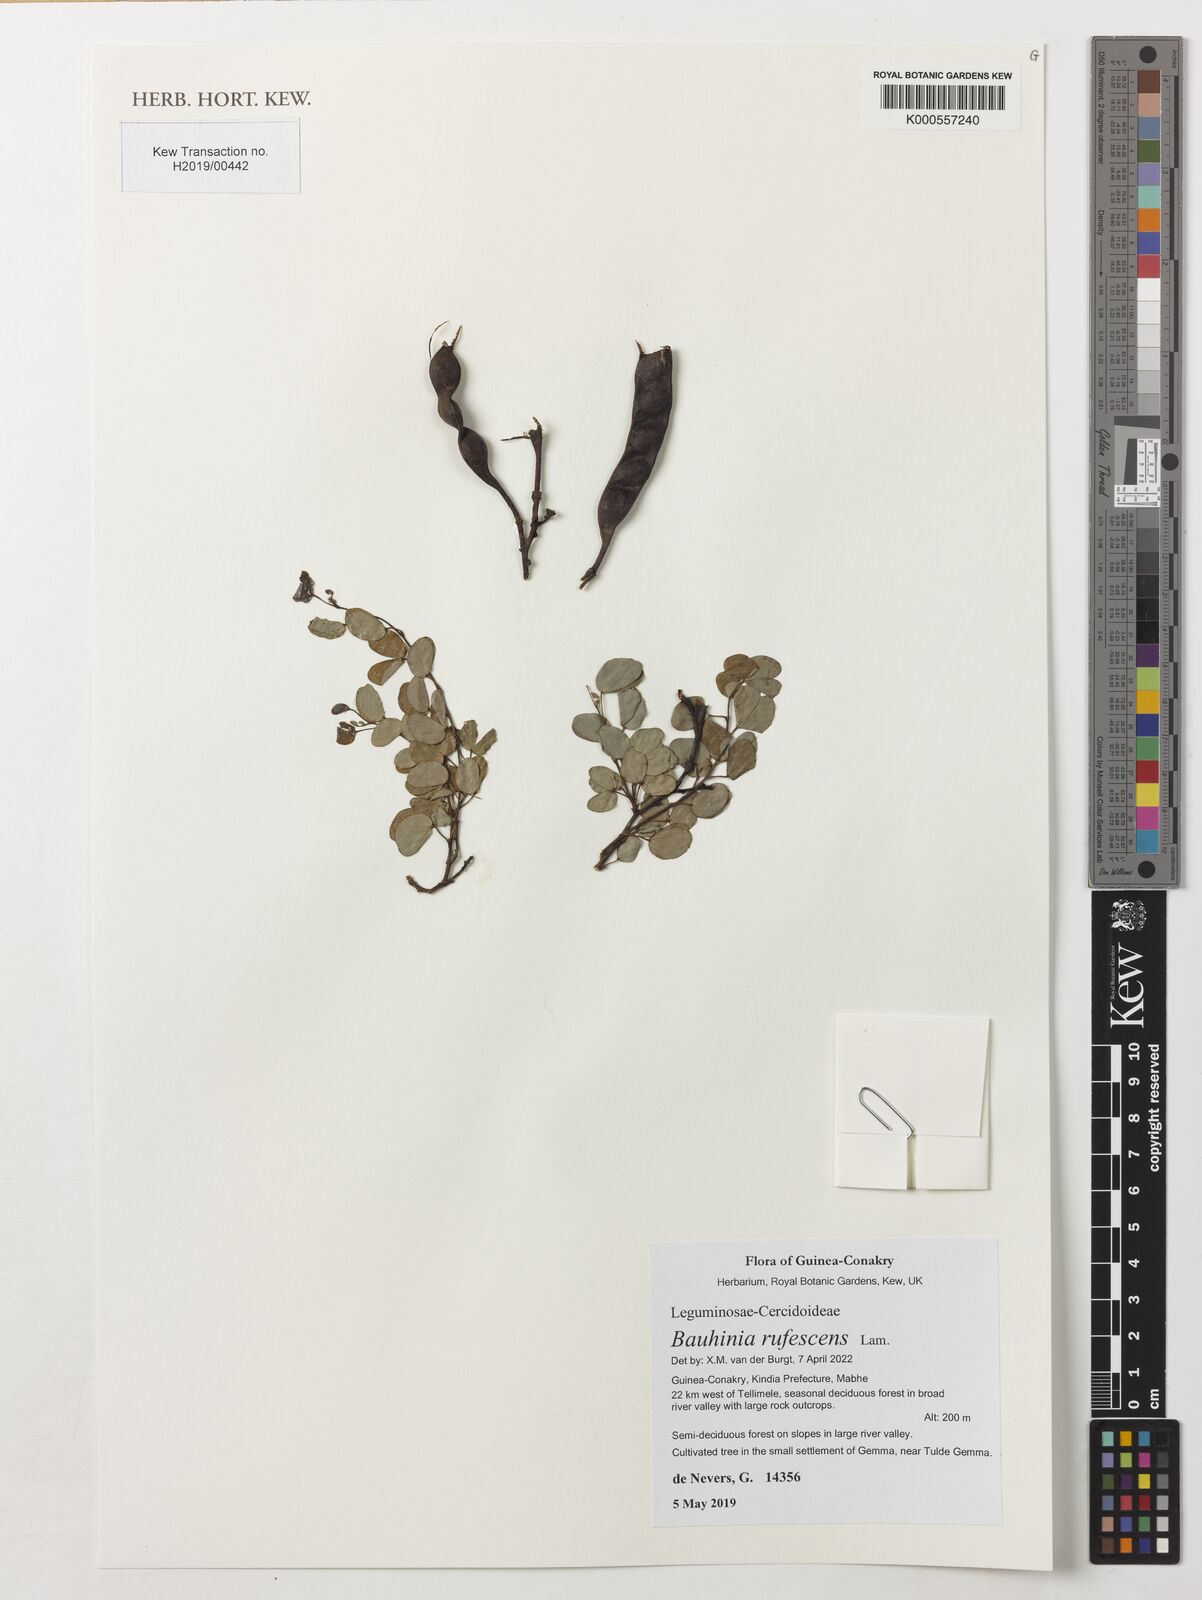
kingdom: Plantae
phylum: Tracheophyta
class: Magnoliopsida
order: Fabales
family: Fabaceae
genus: Bauhinia
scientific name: Bauhinia rufescens
